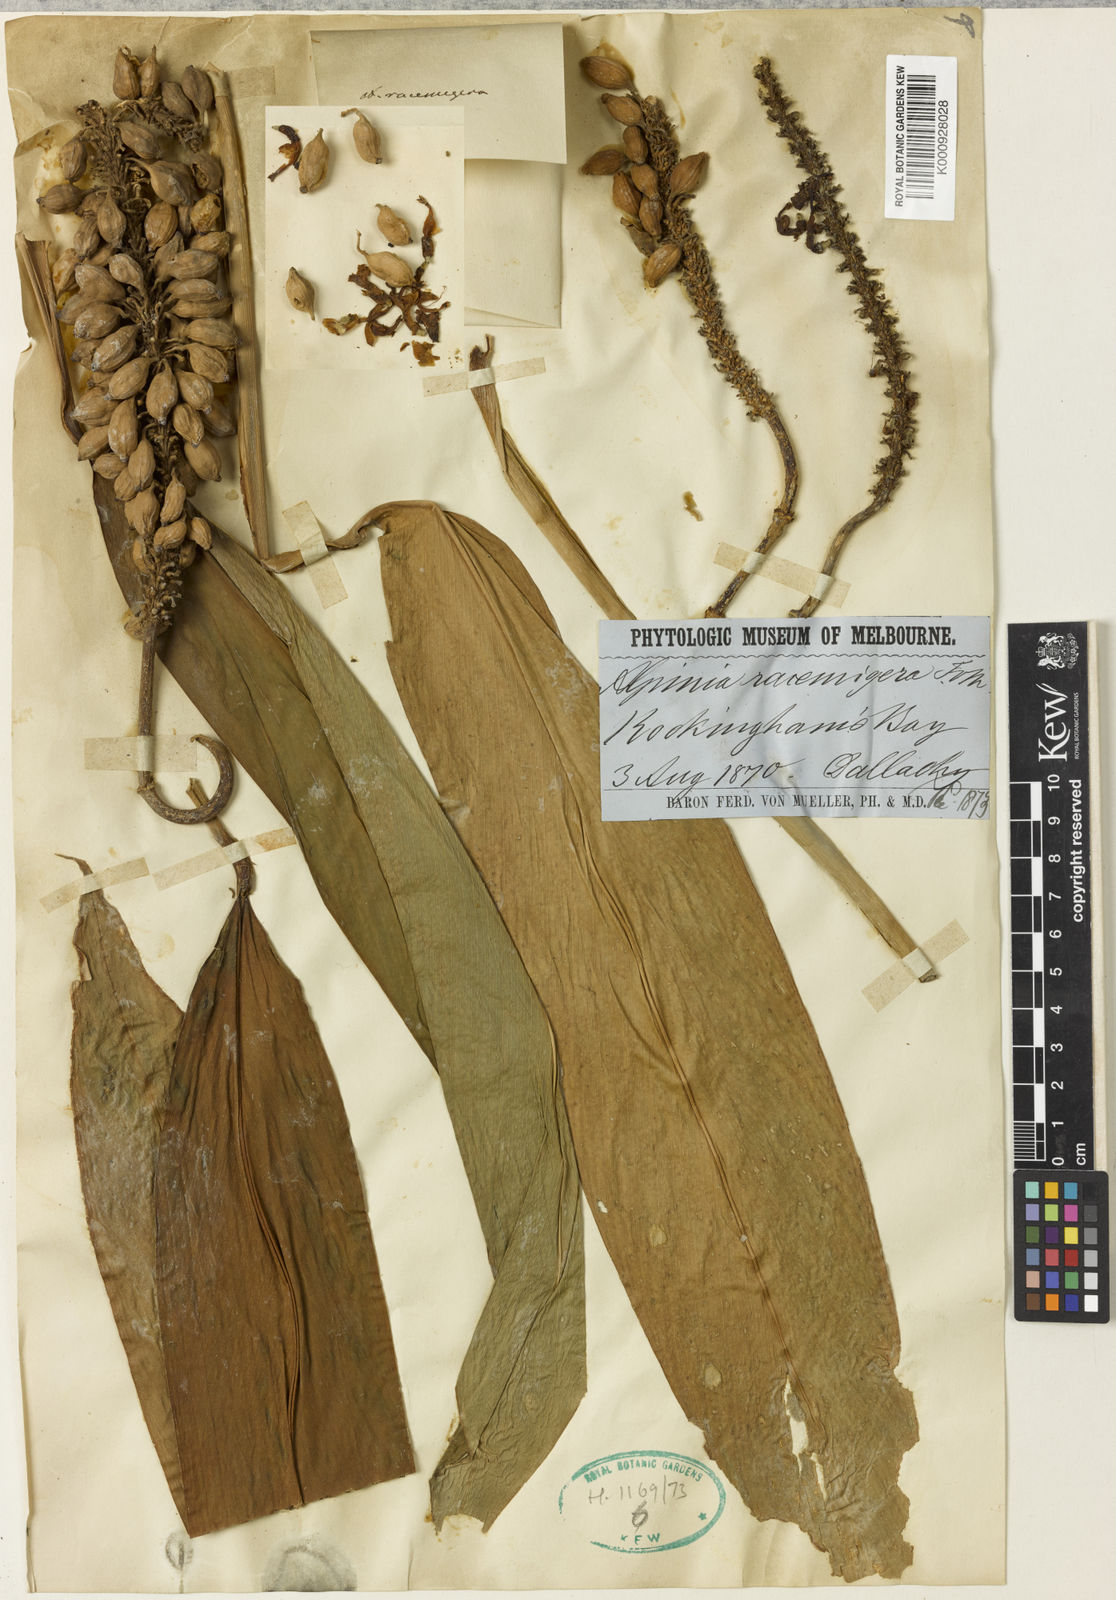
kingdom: Plantae
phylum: Tracheophyta
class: Liliopsida
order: Zingiberales
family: Zingiberaceae
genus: Pleuranthodium
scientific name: Pleuranthodium racemigerum
